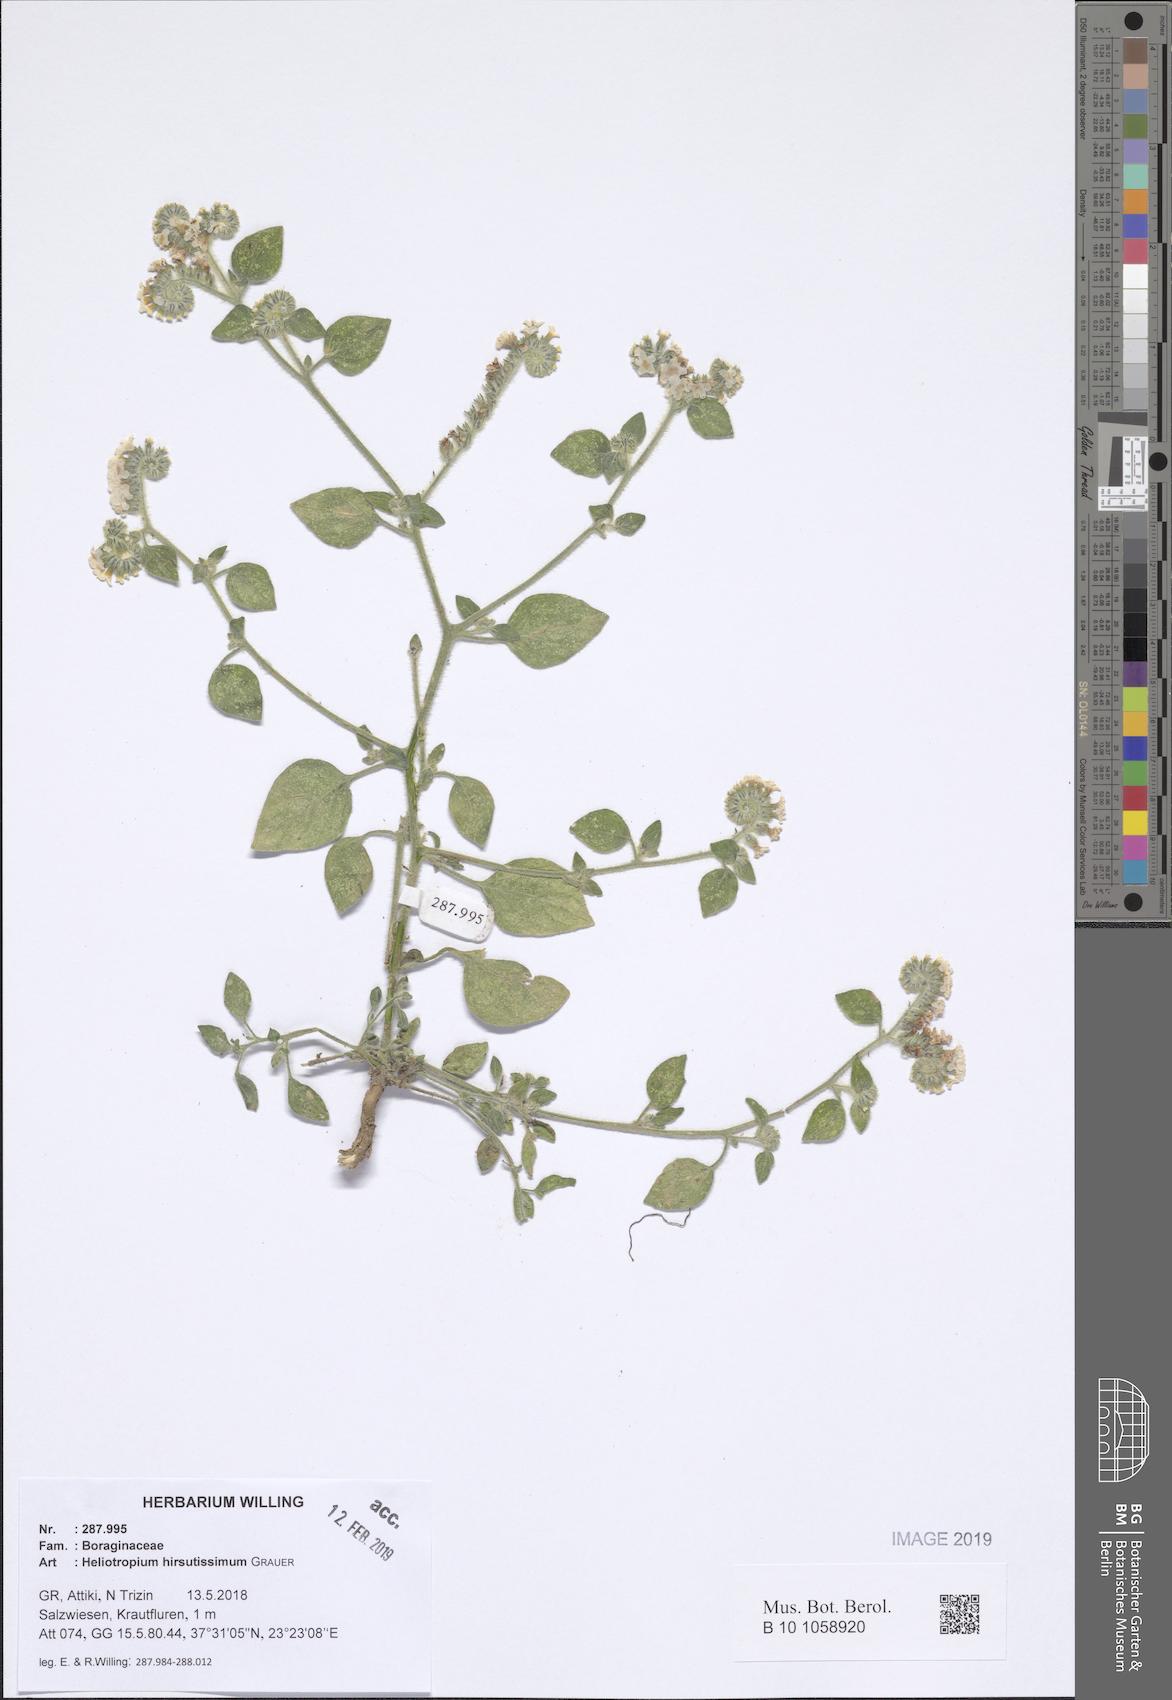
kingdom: Plantae
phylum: Tracheophyta
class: Magnoliopsida
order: Boraginales
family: Heliotropiaceae
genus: Heliotropium
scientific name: Heliotropium hirsutissimum
